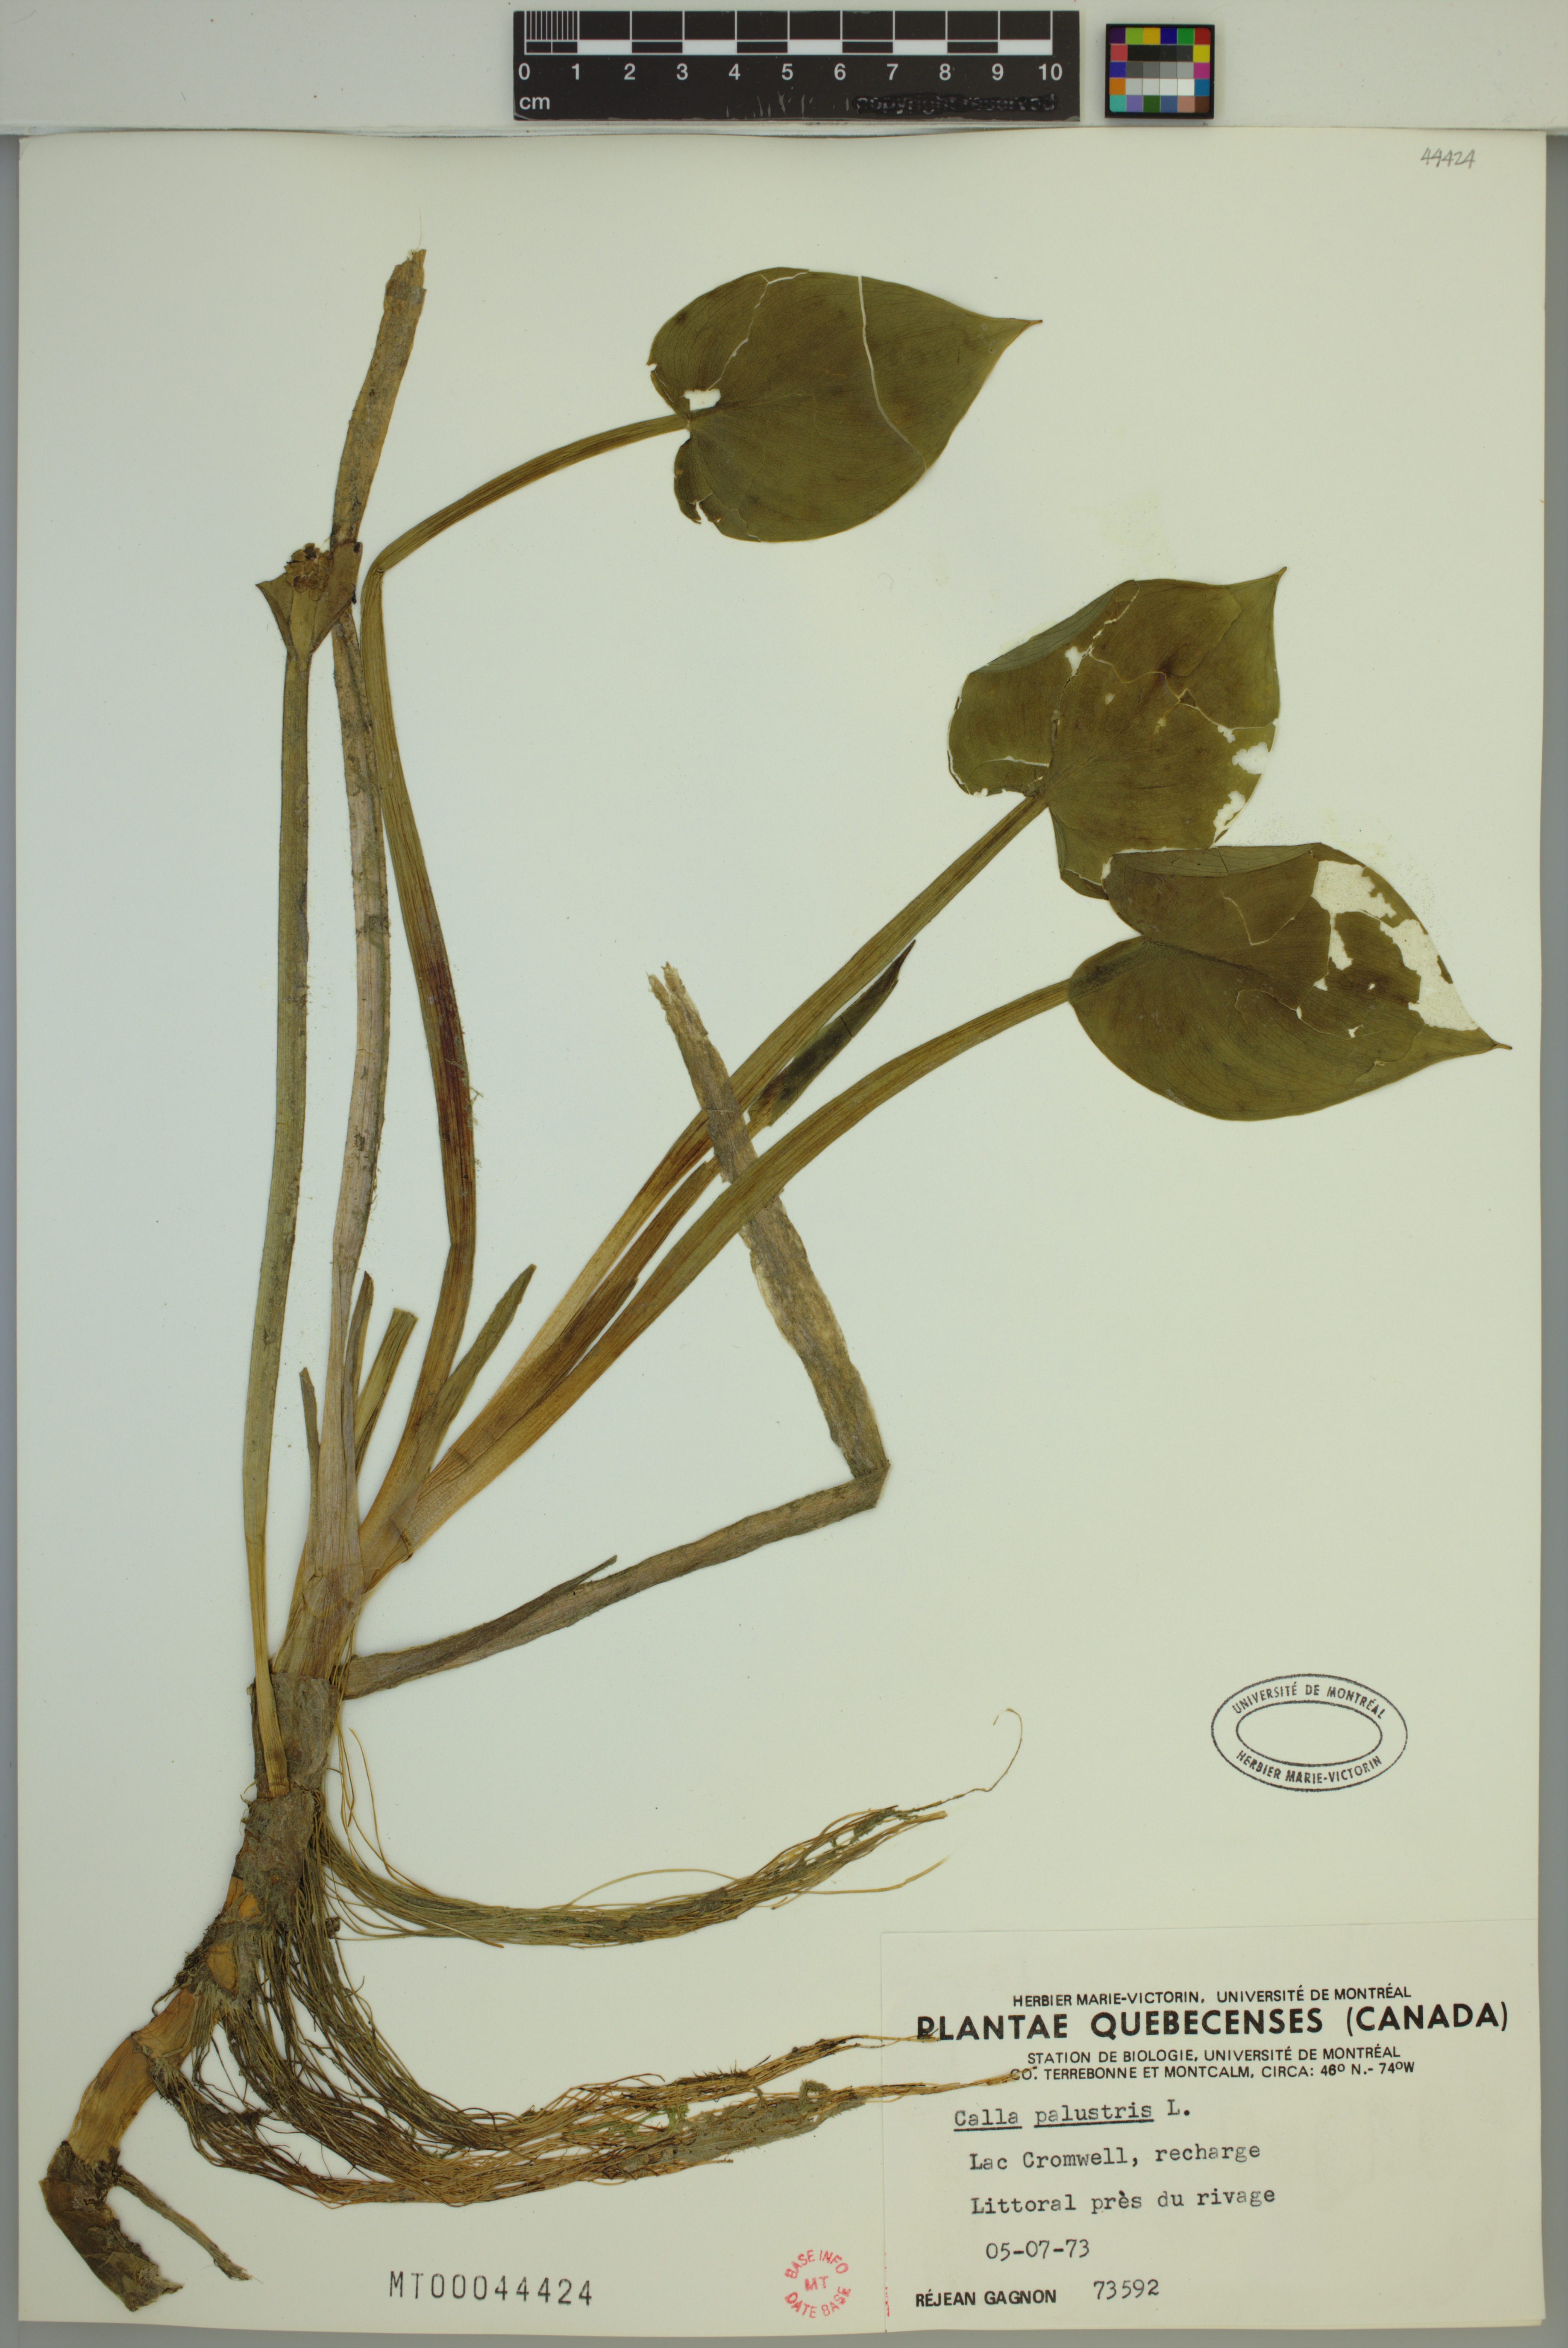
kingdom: Plantae
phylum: Tracheophyta
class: Liliopsida
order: Alismatales
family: Araceae
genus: Calla
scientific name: Calla palustris
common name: Bog arum
